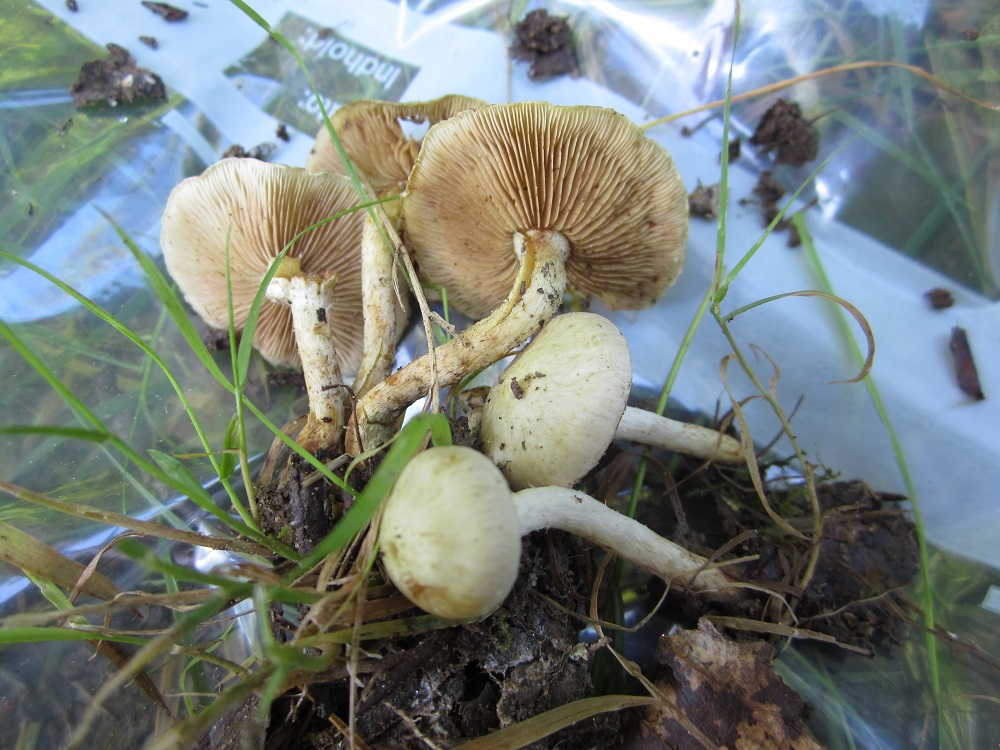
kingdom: Fungi
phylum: Basidiomycota
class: Agaricomycetes
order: Agaricales
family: Strophariaceae
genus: Pholiota
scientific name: Pholiota gummosa
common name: grøngul skælhat
